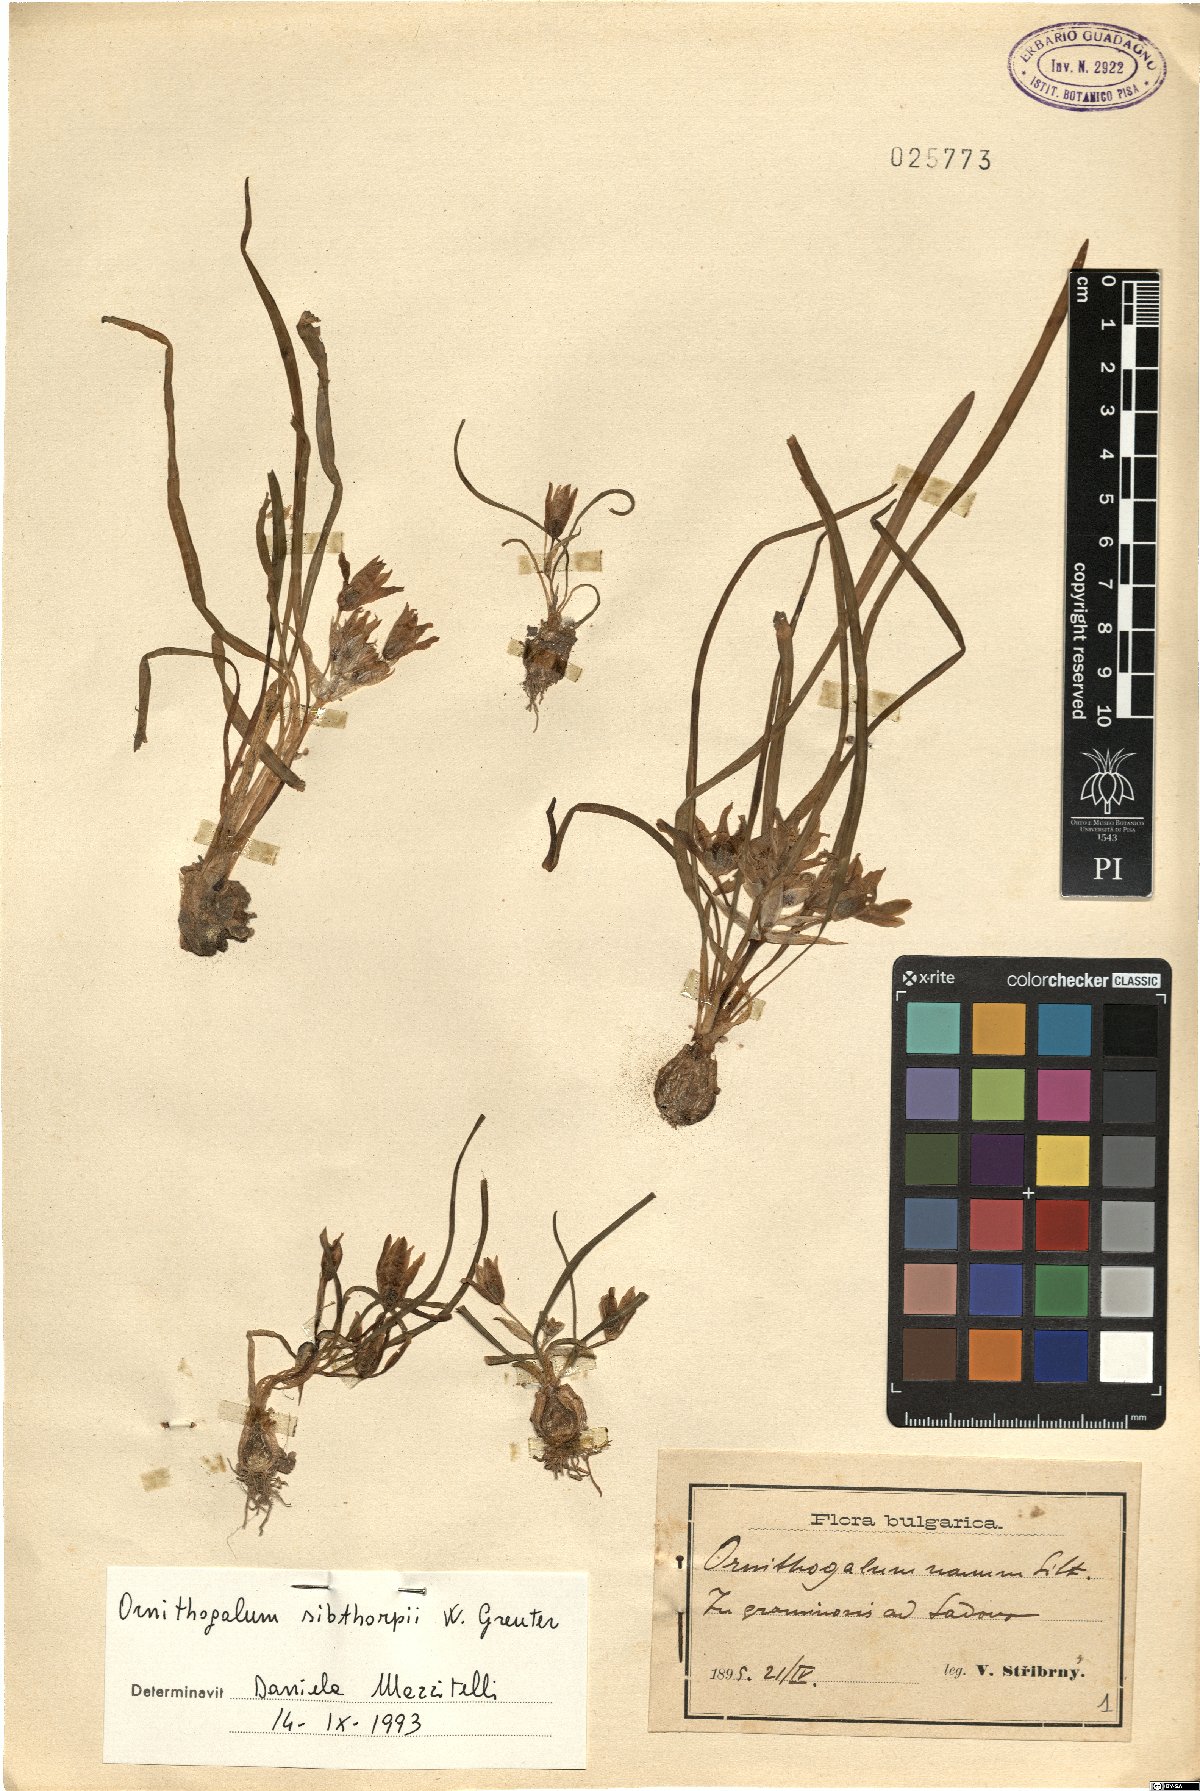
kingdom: Plantae
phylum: Tracheophyta
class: Liliopsida
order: Asparagales
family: Asparagaceae
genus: Ornithogalum
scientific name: Ornithogalum sigmoideum
